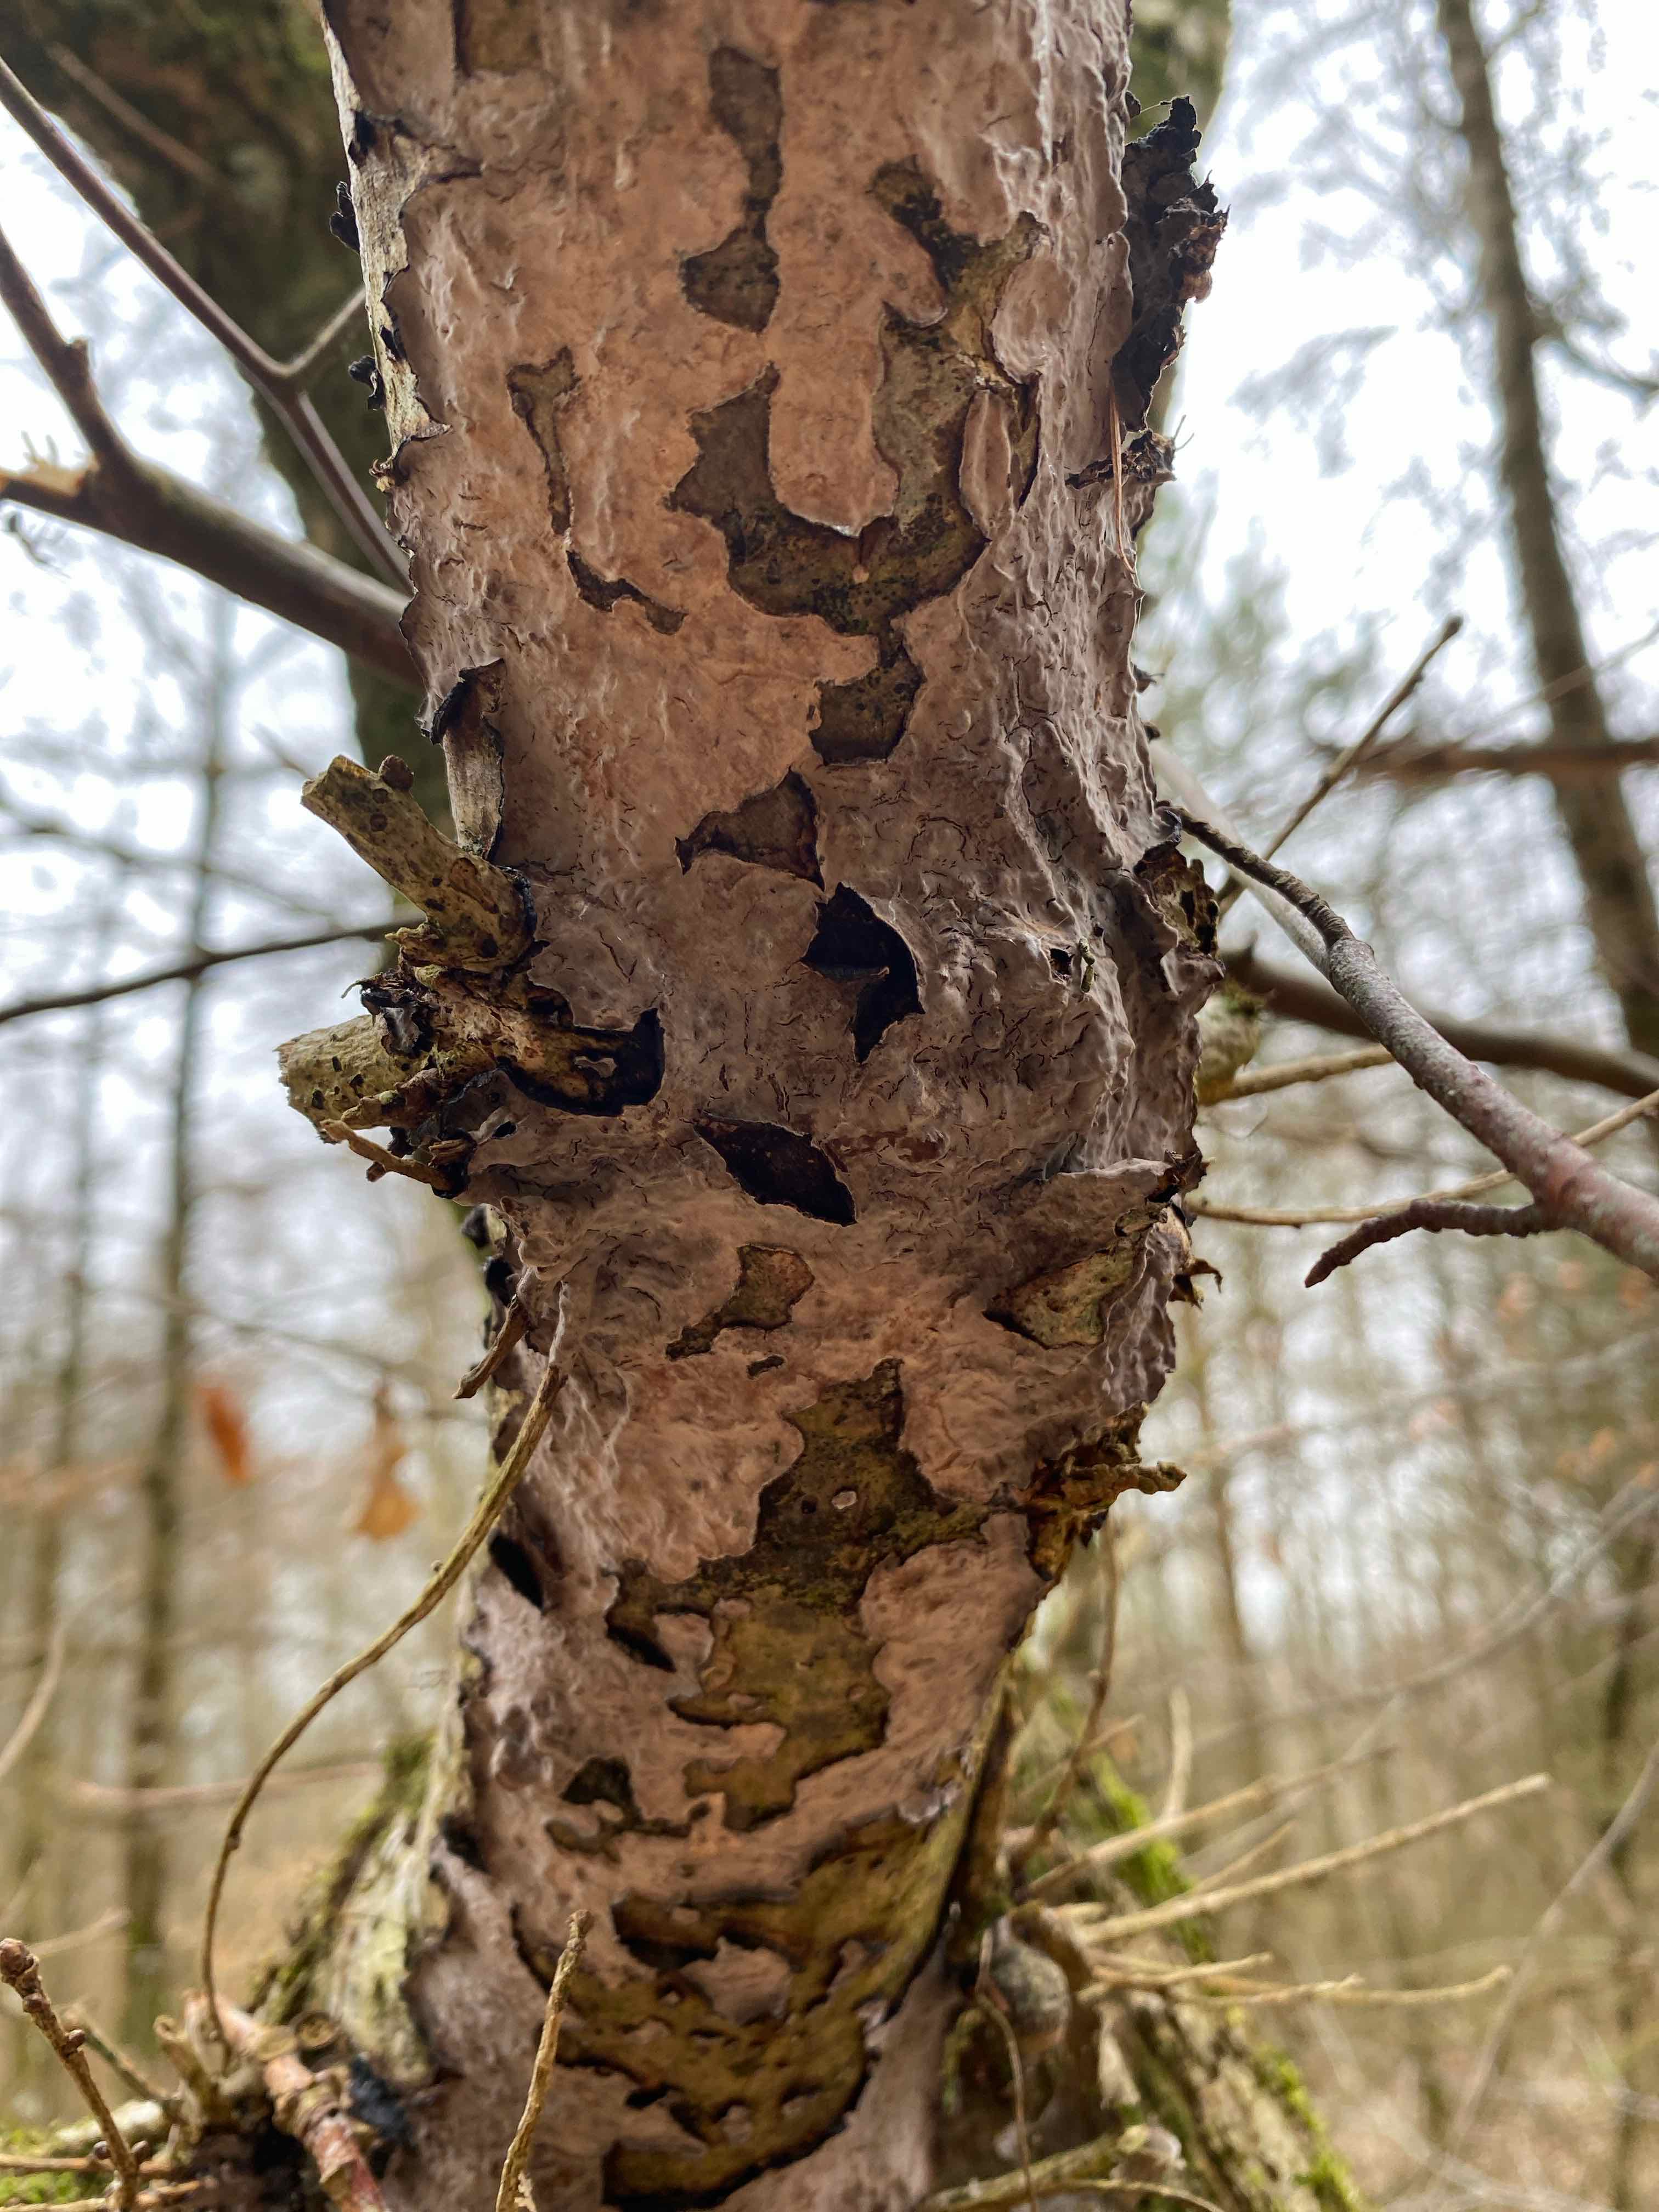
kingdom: Fungi
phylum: Basidiomycota
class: Agaricomycetes
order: Russulales
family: Peniophoraceae
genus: Peniophora
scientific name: Peniophora quercina
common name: ege-voksskind
